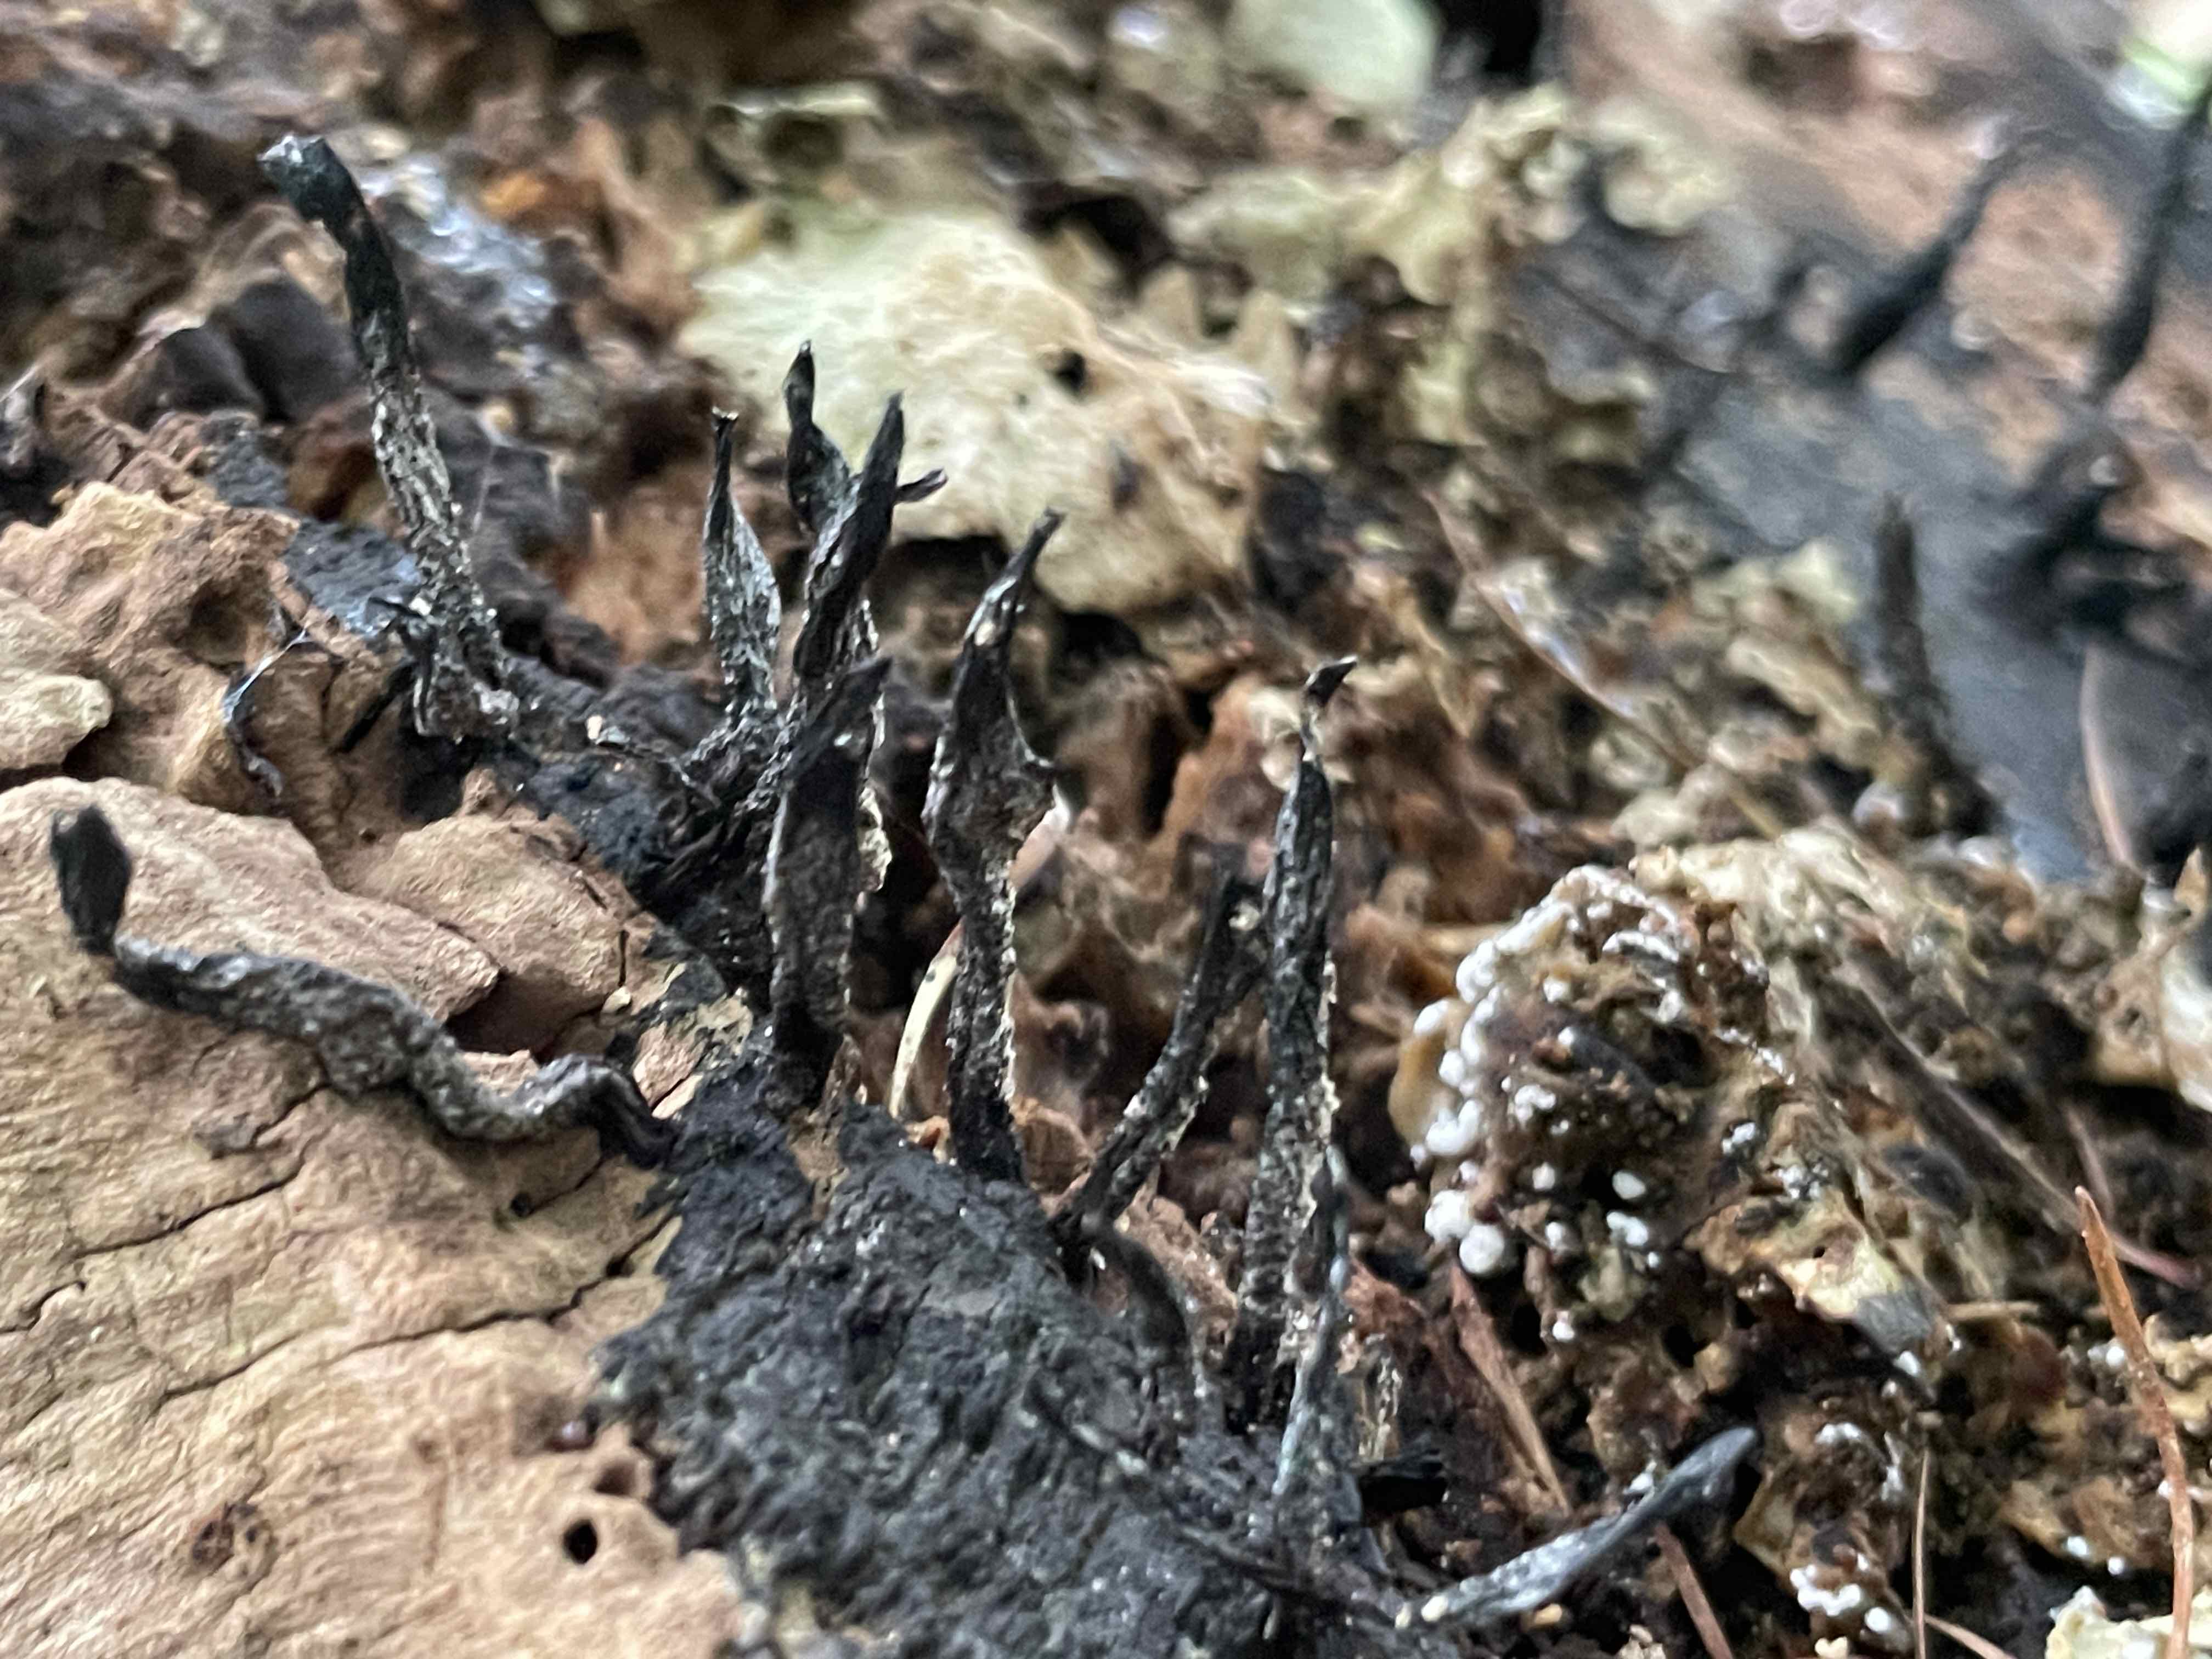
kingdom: Fungi
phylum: Ascomycota
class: Sordariomycetes
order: Xylariales
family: Xylariaceae
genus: Xylaria
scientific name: Xylaria hypoxylon
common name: grenet stødsvamp
